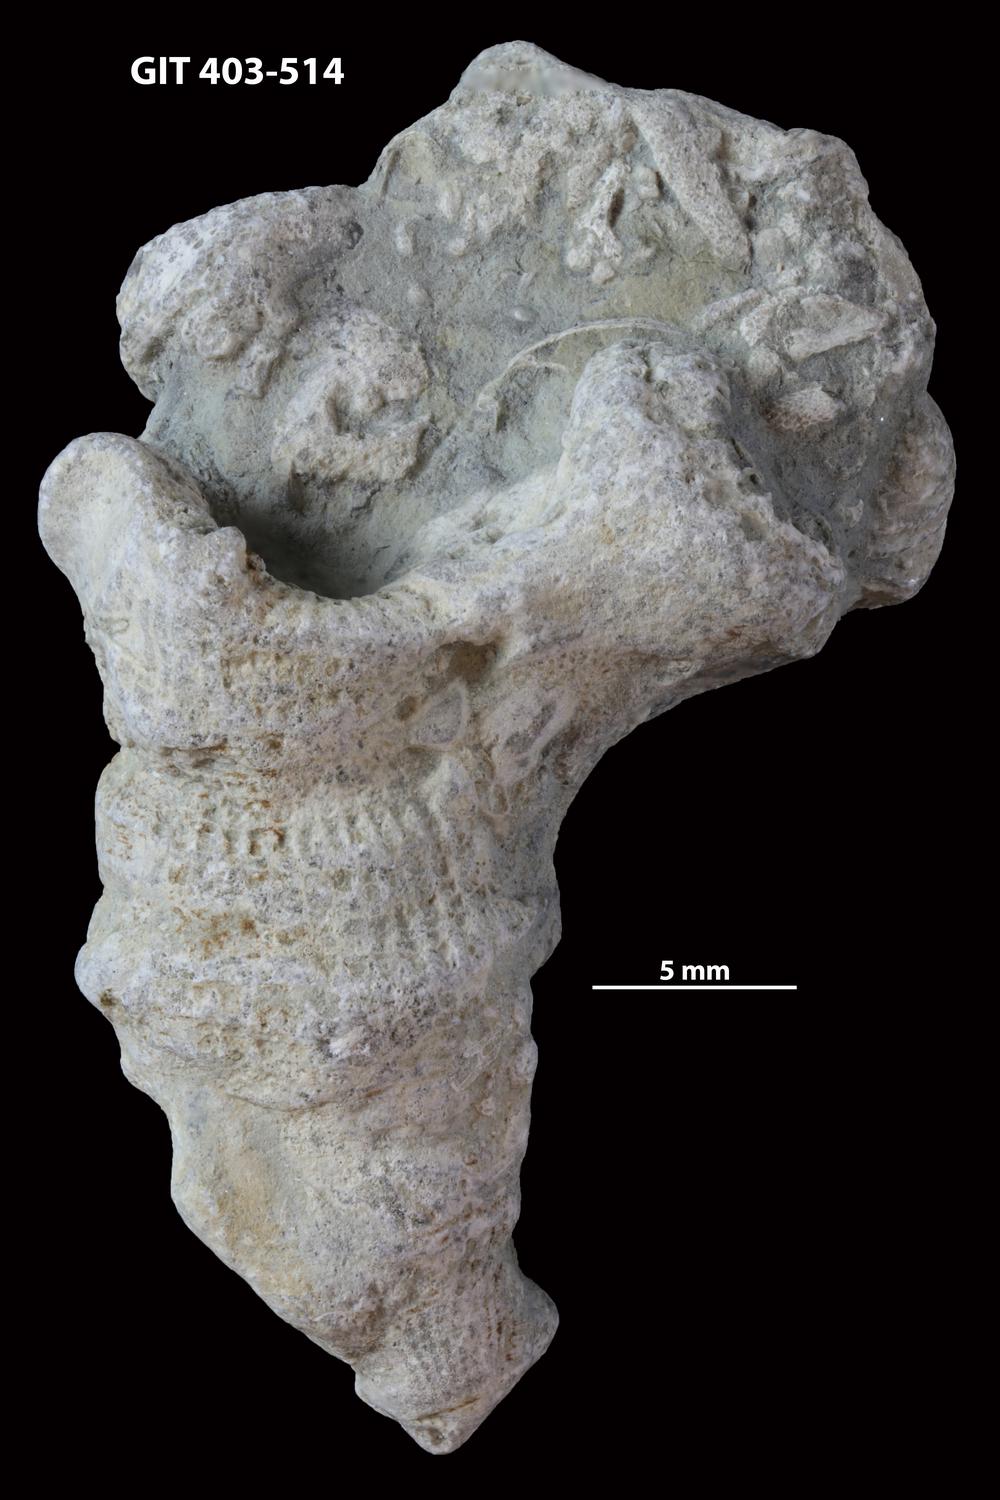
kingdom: Animalia
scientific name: Animalia
